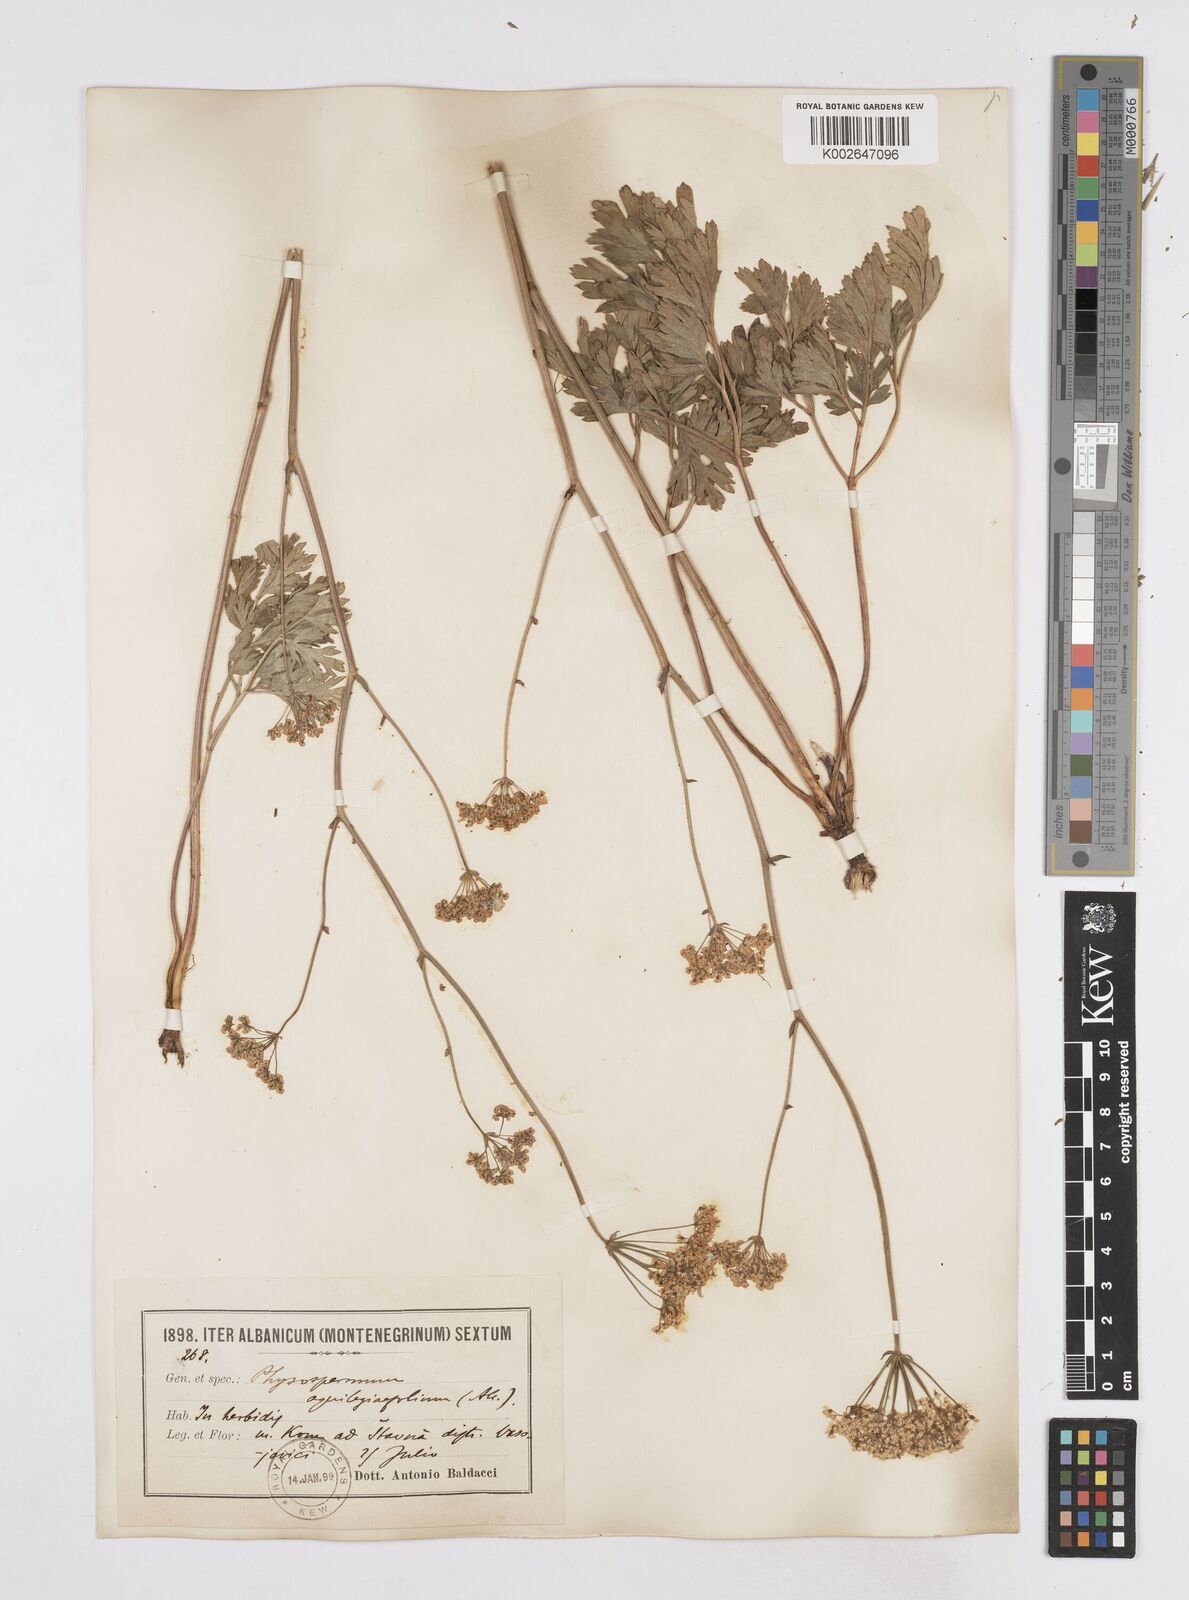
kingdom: Plantae
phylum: Tracheophyta
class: Magnoliopsida
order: Apiales
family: Apiaceae
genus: Physospermum
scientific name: Physospermum cornubiense
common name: Bladderseed
